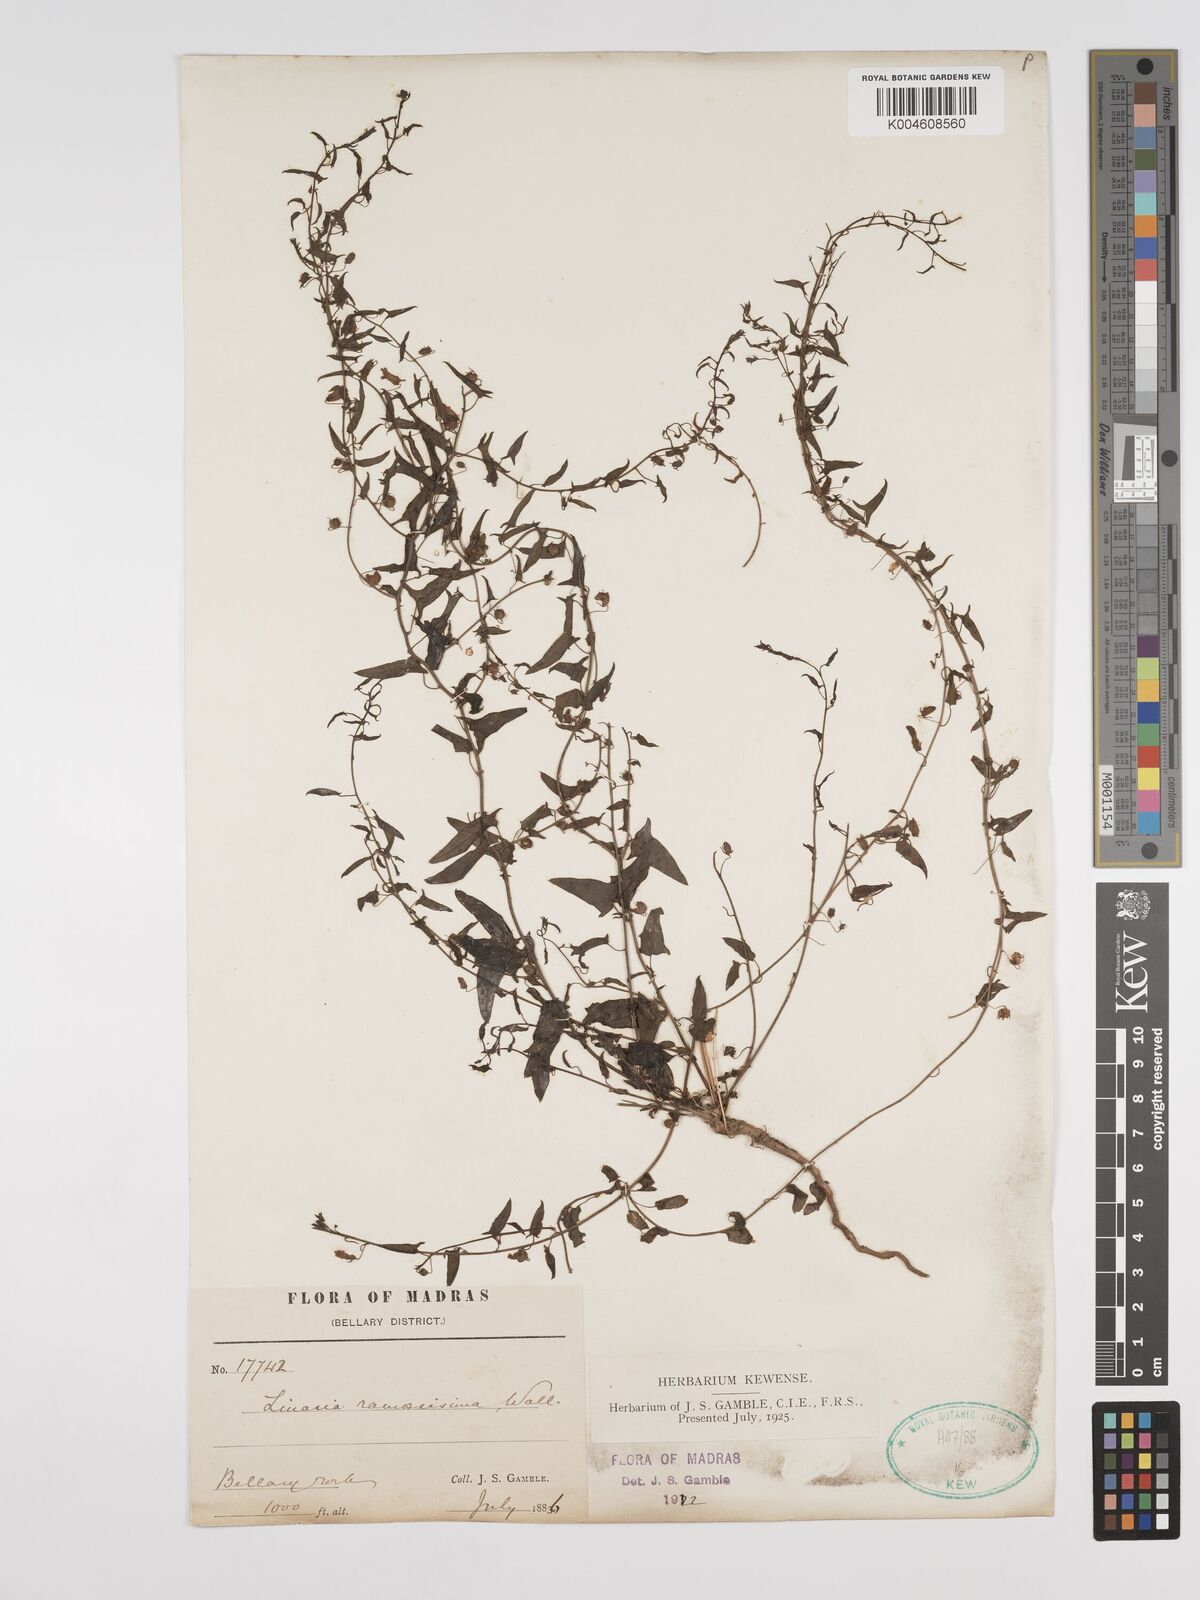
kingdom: Plantae
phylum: Tracheophyta
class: Magnoliopsida
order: Lamiales
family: Plantaginaceae
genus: Nanorrhinum
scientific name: Nanorrhinum ramosissimum
